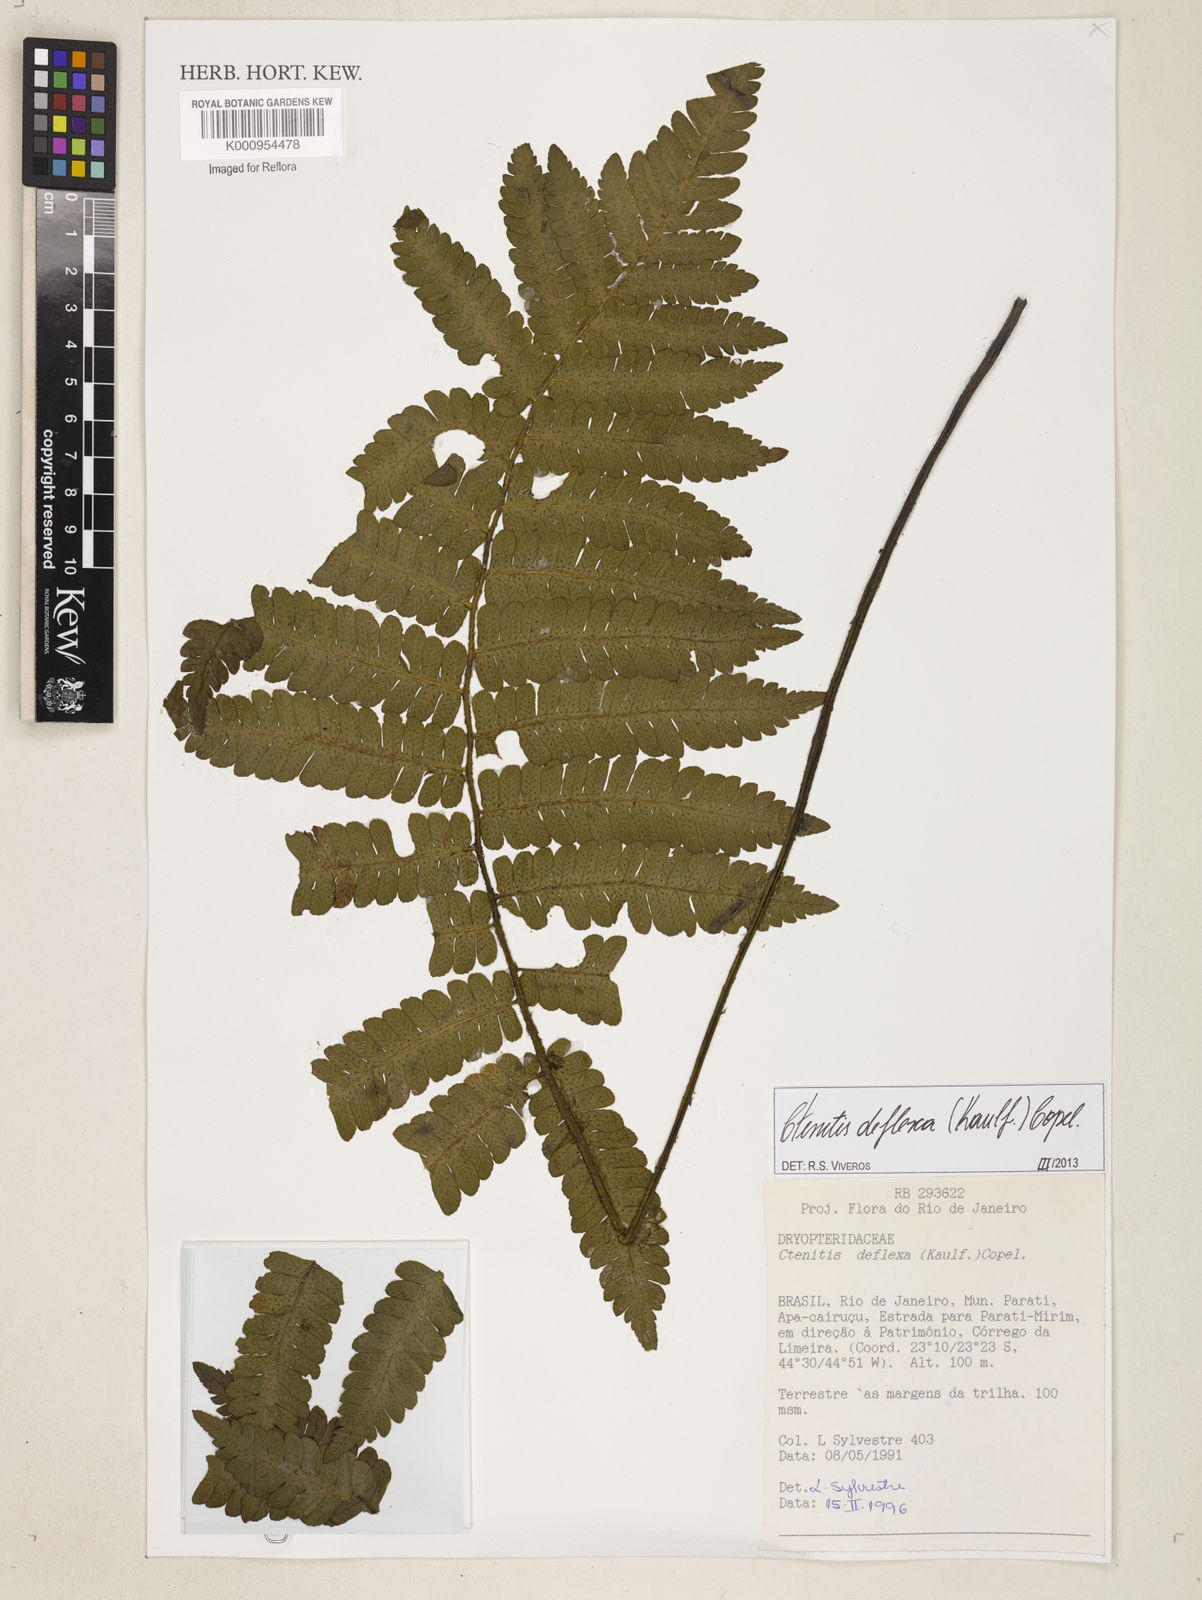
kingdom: Plantae
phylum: Tracheophyta
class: Polypodiopsida
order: Polypodiales
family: Dryopteridaceae
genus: Ctenitis
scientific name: Ctenitis deflexa
